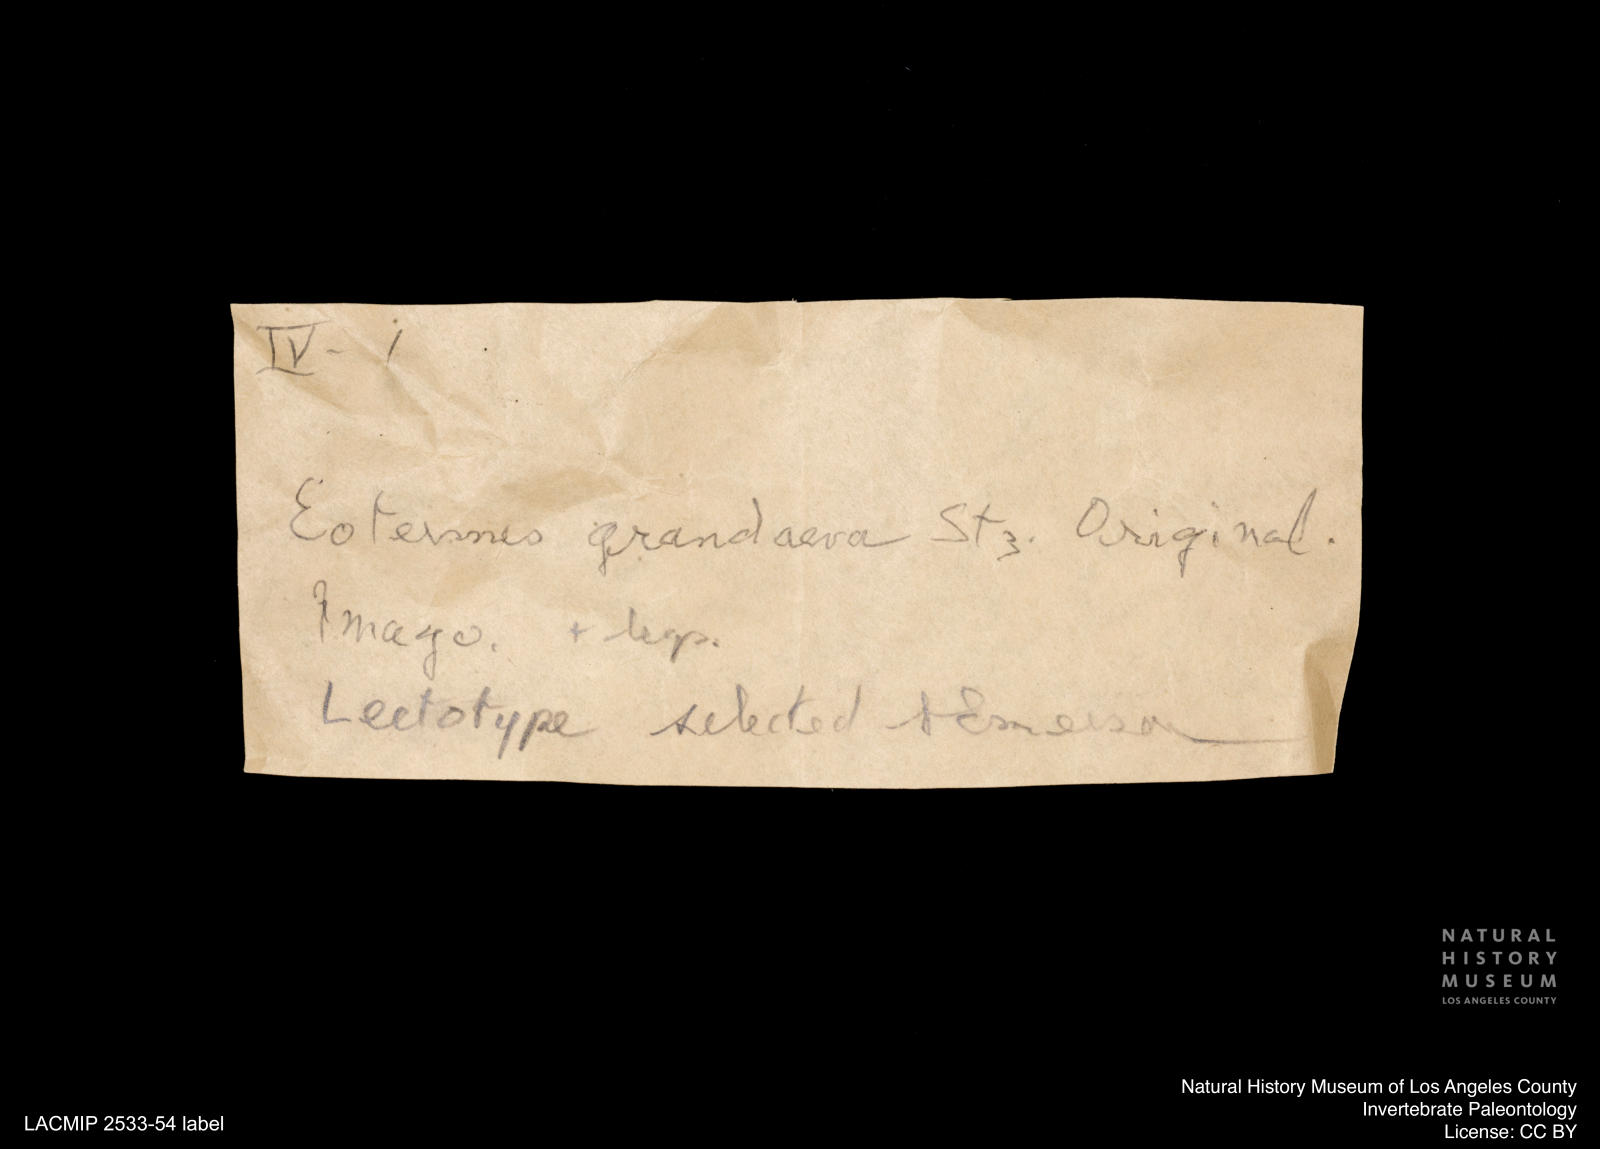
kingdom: Animalia
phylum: Arthropoda
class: Insecta
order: Blattodea
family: Kalotermitidae
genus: Eotermes
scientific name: Eotermes grandaeva
